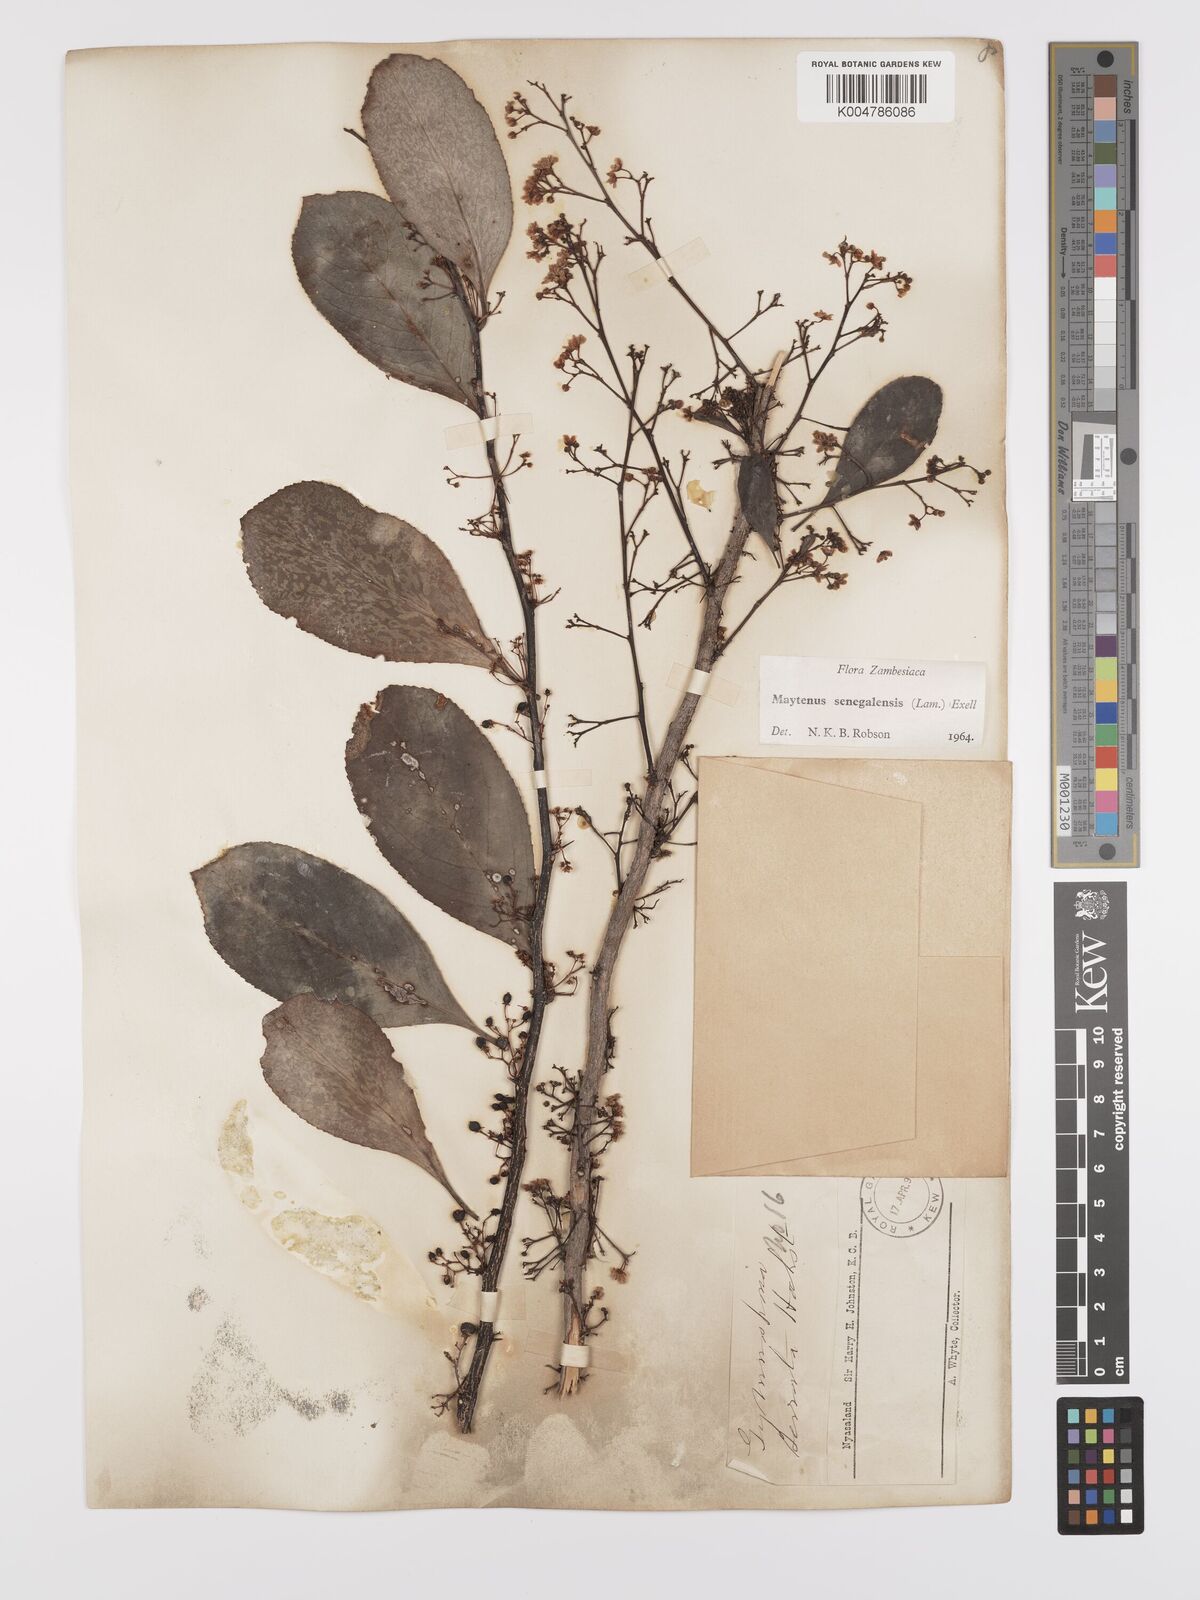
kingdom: Plantae
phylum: Tracheophyta
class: Magnoliopsida
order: Celastrales
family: Celastraceae
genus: Gymnosporia
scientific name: Gymnosporia senegalensis
